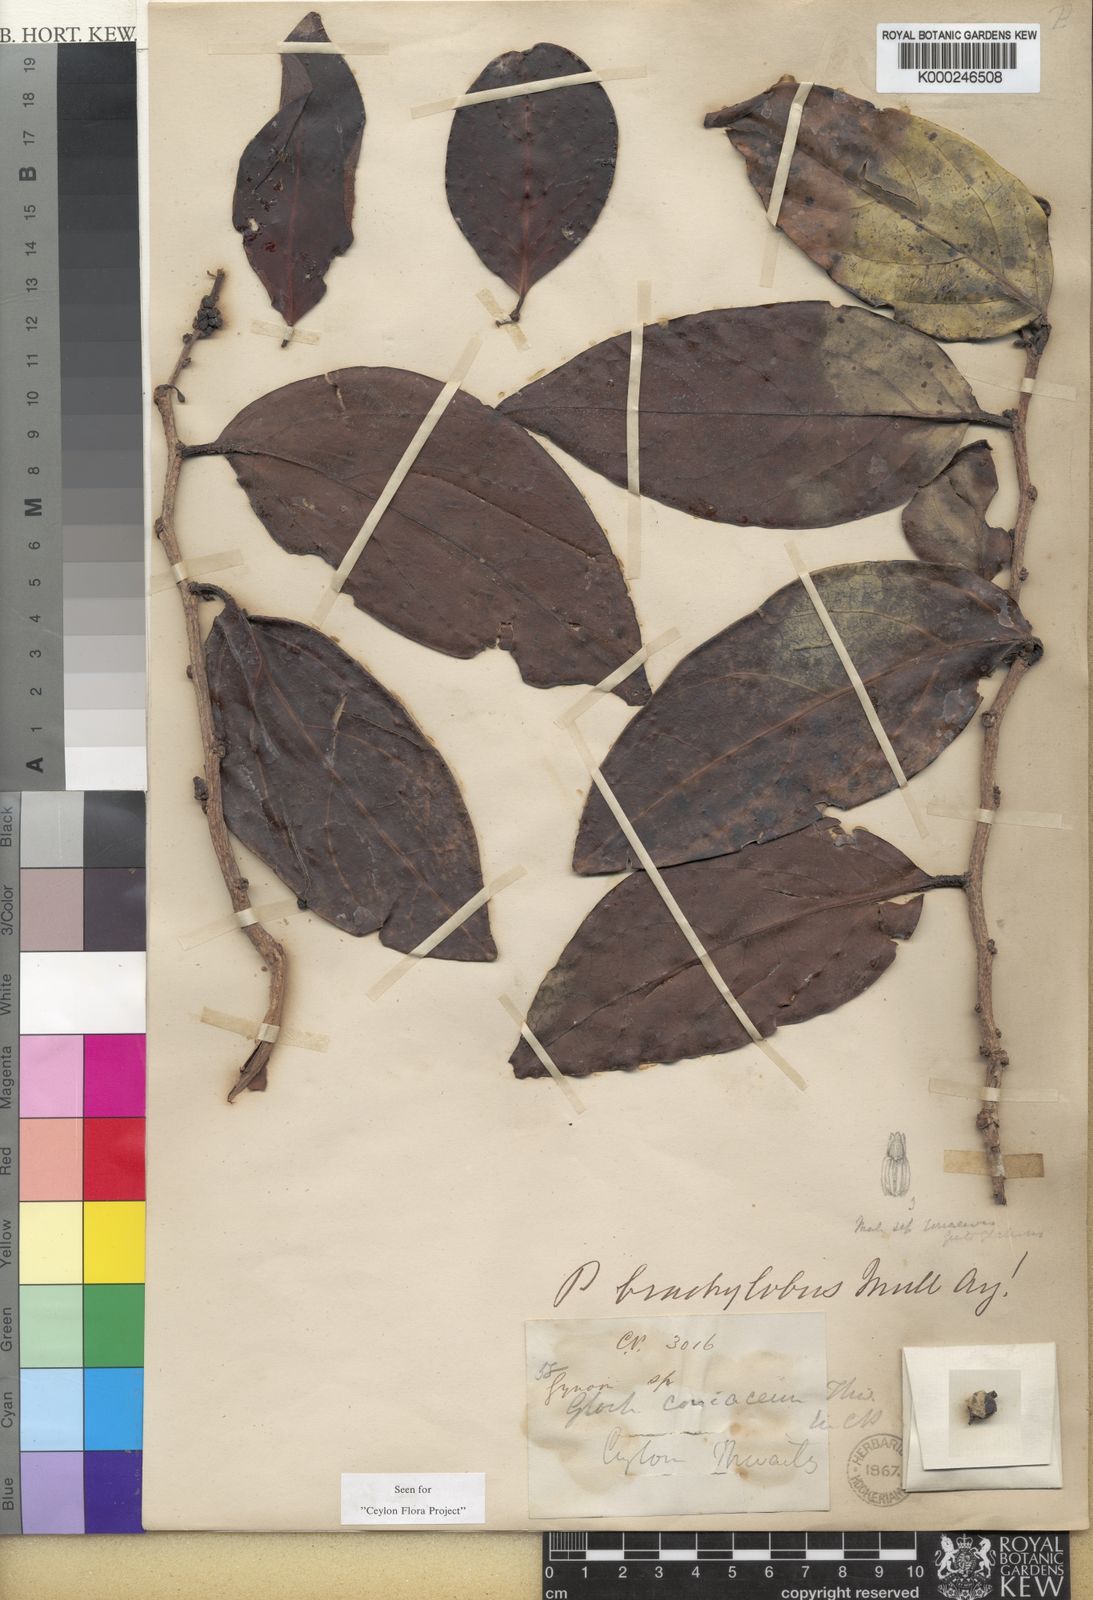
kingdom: Plantae
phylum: Tracheophyta
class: Magnoliopsida
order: Malpighiales
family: Phyllanthaceae
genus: Glochidion
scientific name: Glochidion coriaceum
